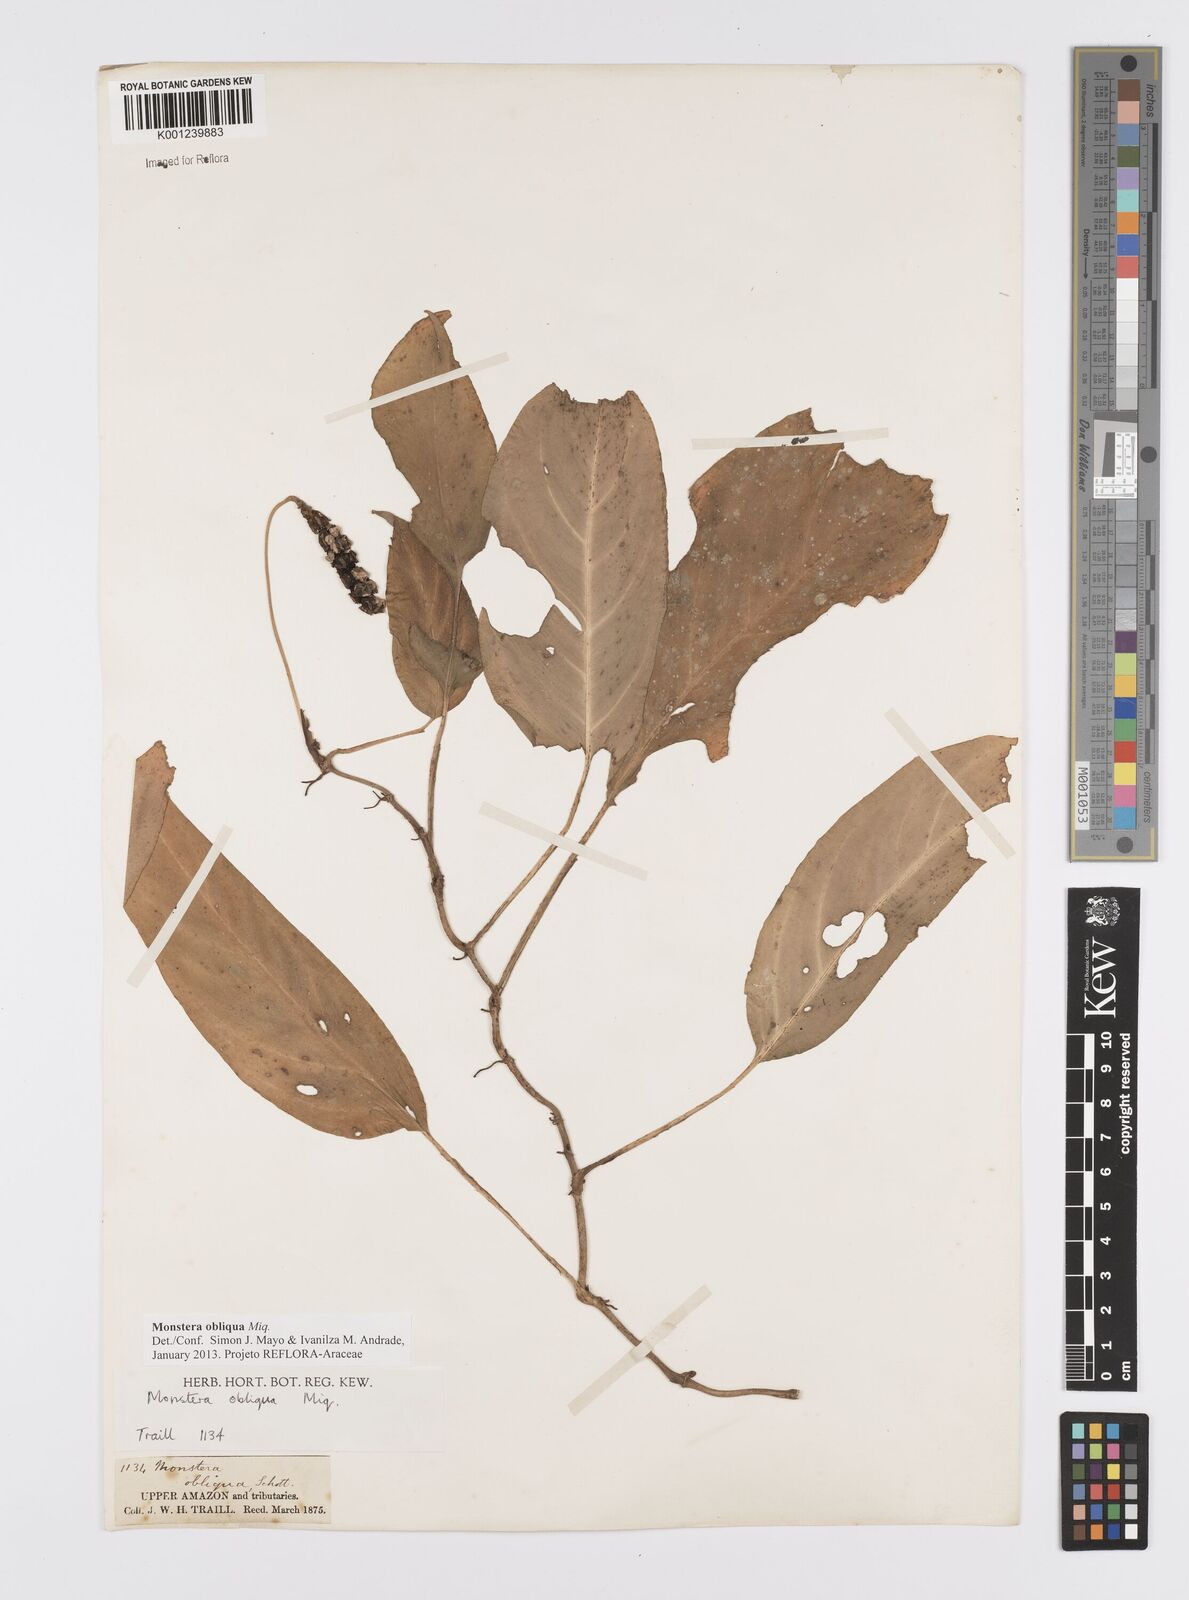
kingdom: Plantae
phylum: Tracheophyta
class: Liliopsida
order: Alismatales
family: Araceae
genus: Monstera
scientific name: Monstera obliqua
